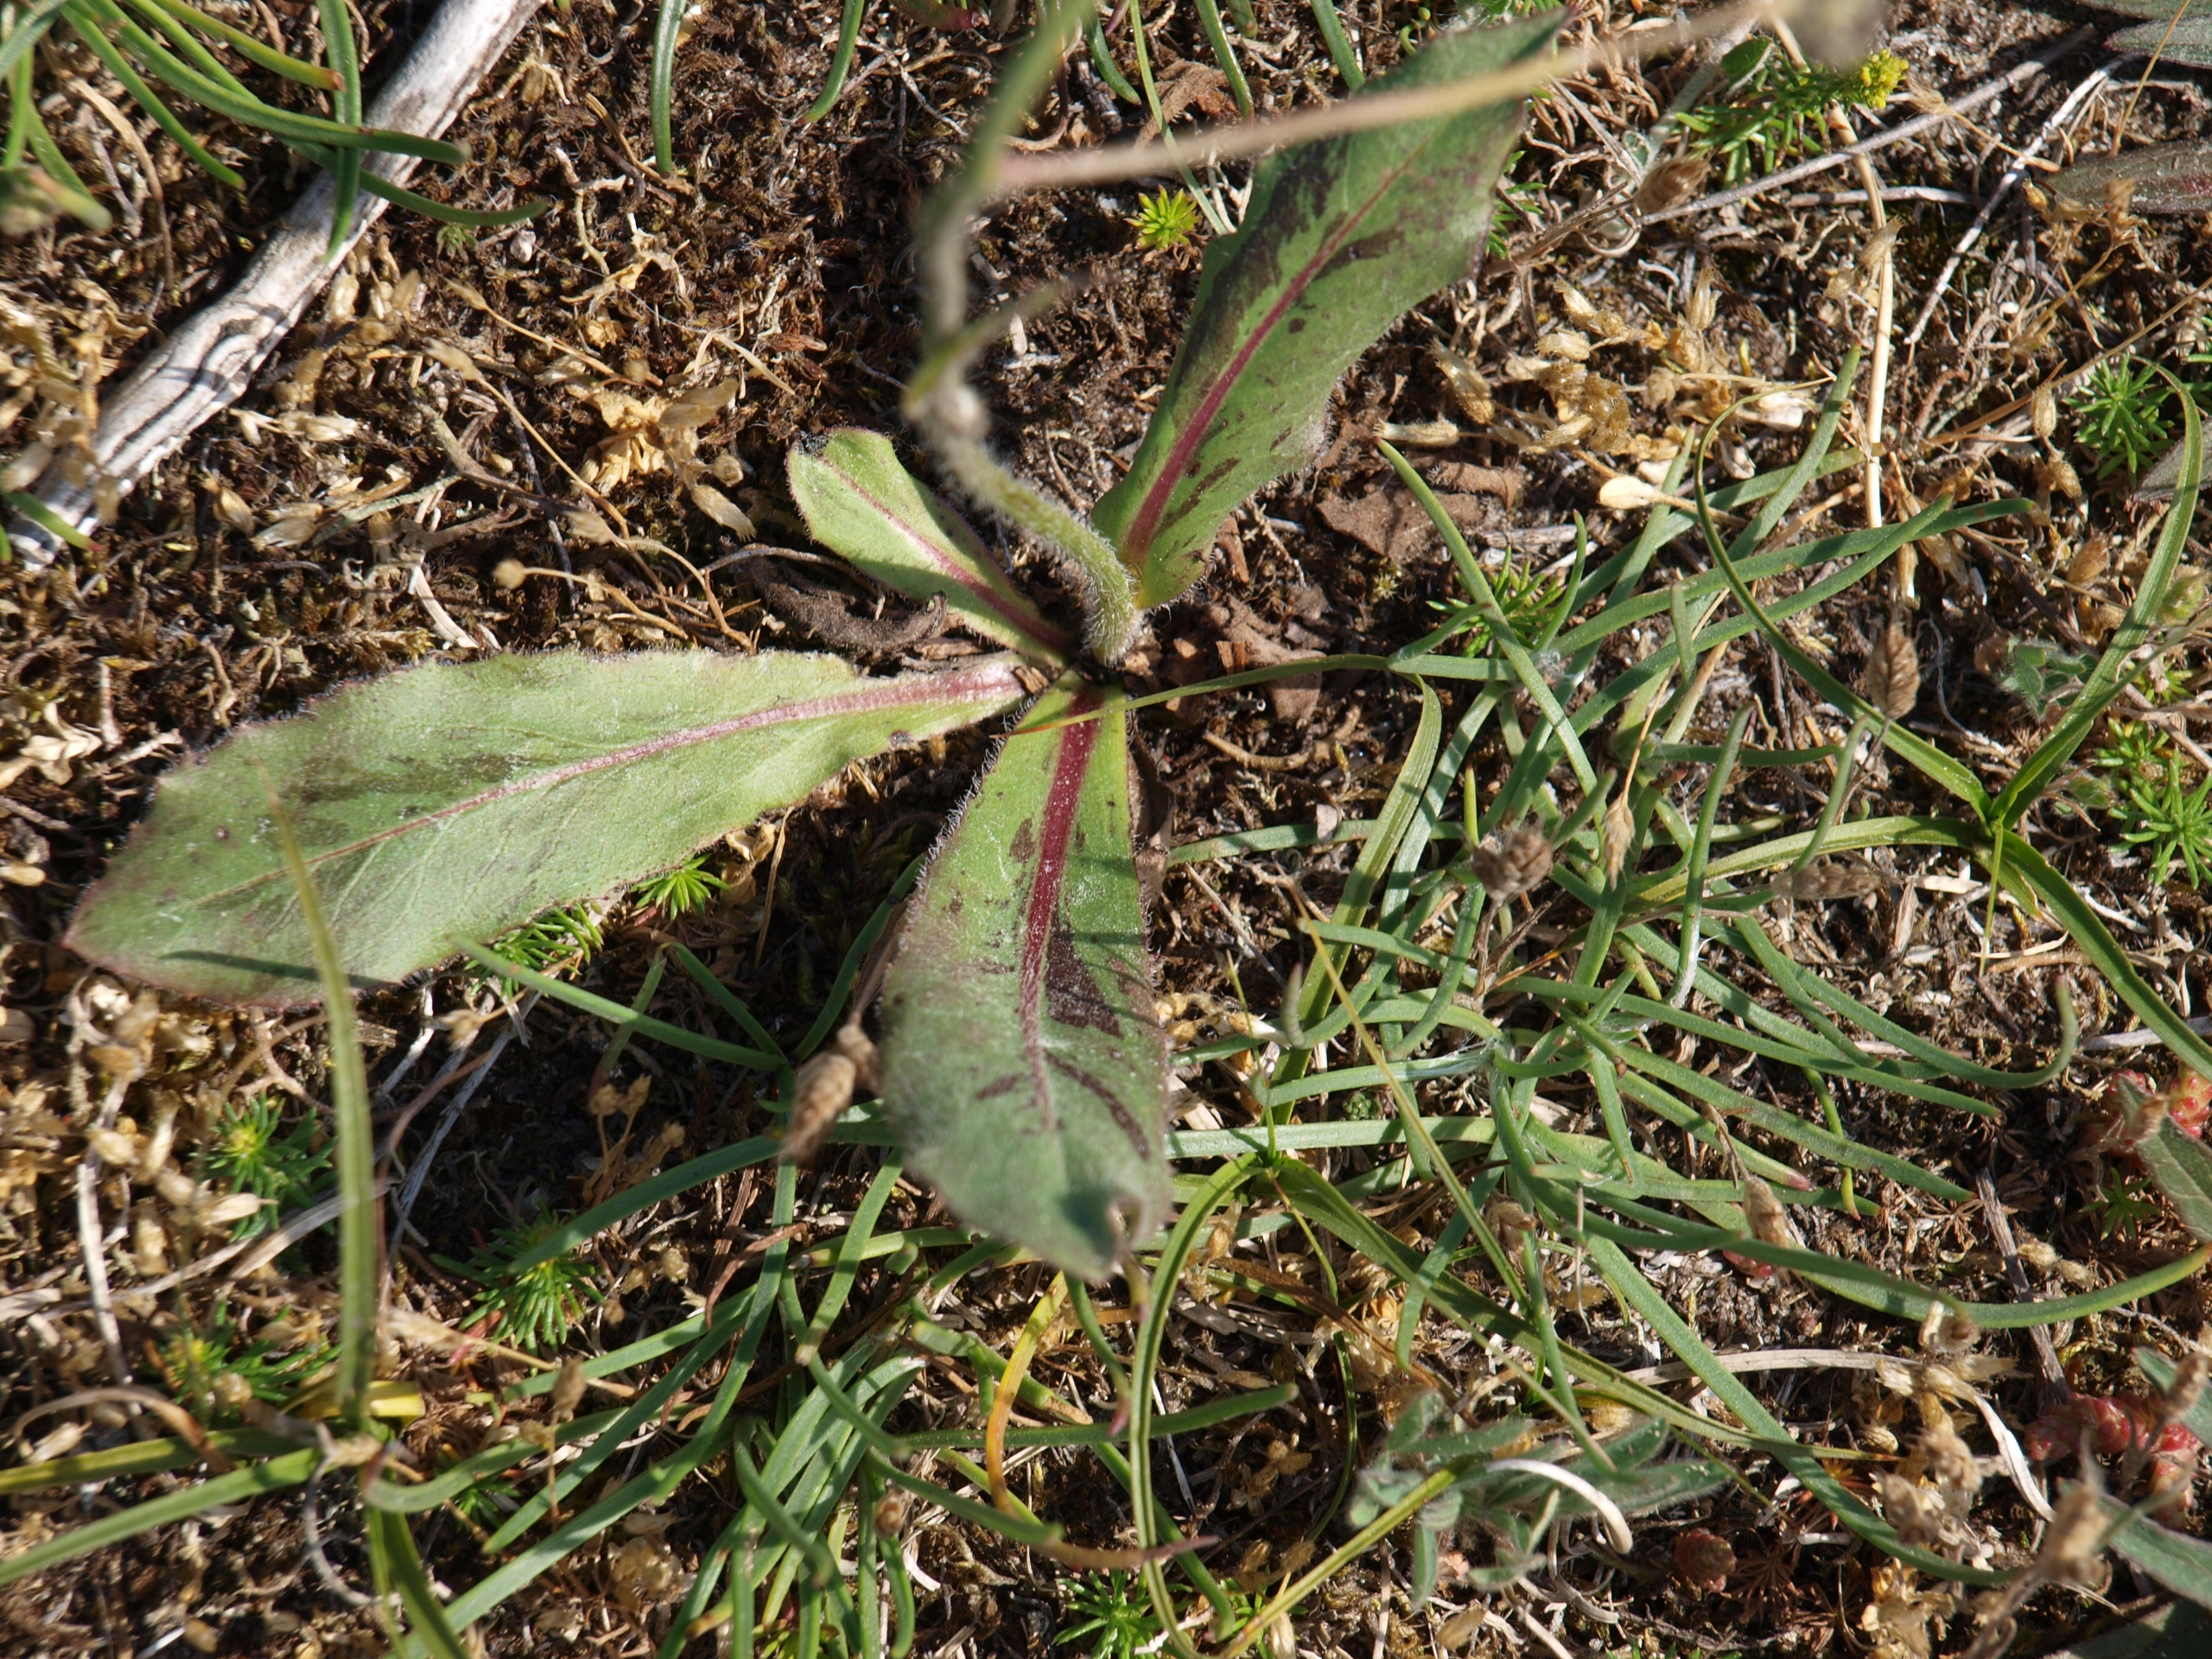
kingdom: Plantae
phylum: Tracheophyta
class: Magnoliopsida
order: Asterales
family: Asteraceae
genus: Trommsdorffia
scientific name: Trommsdorffia maculata
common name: Plettet kongepen
